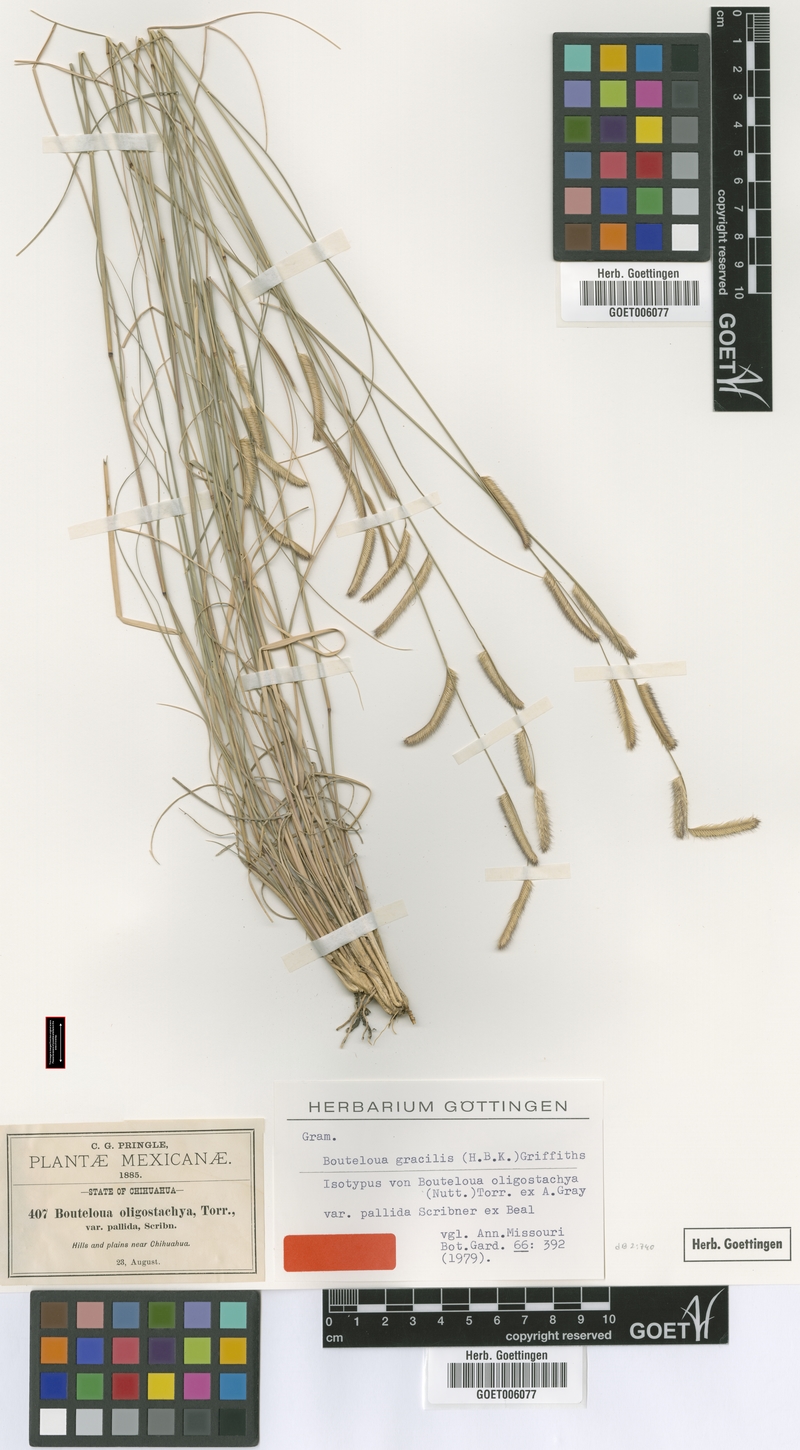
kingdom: Plantae
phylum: Tracheophyta
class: Liliopsida
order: Poales
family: Poaceae
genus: Bouteloua
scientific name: Bouteloua gracilis
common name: Blue grama
